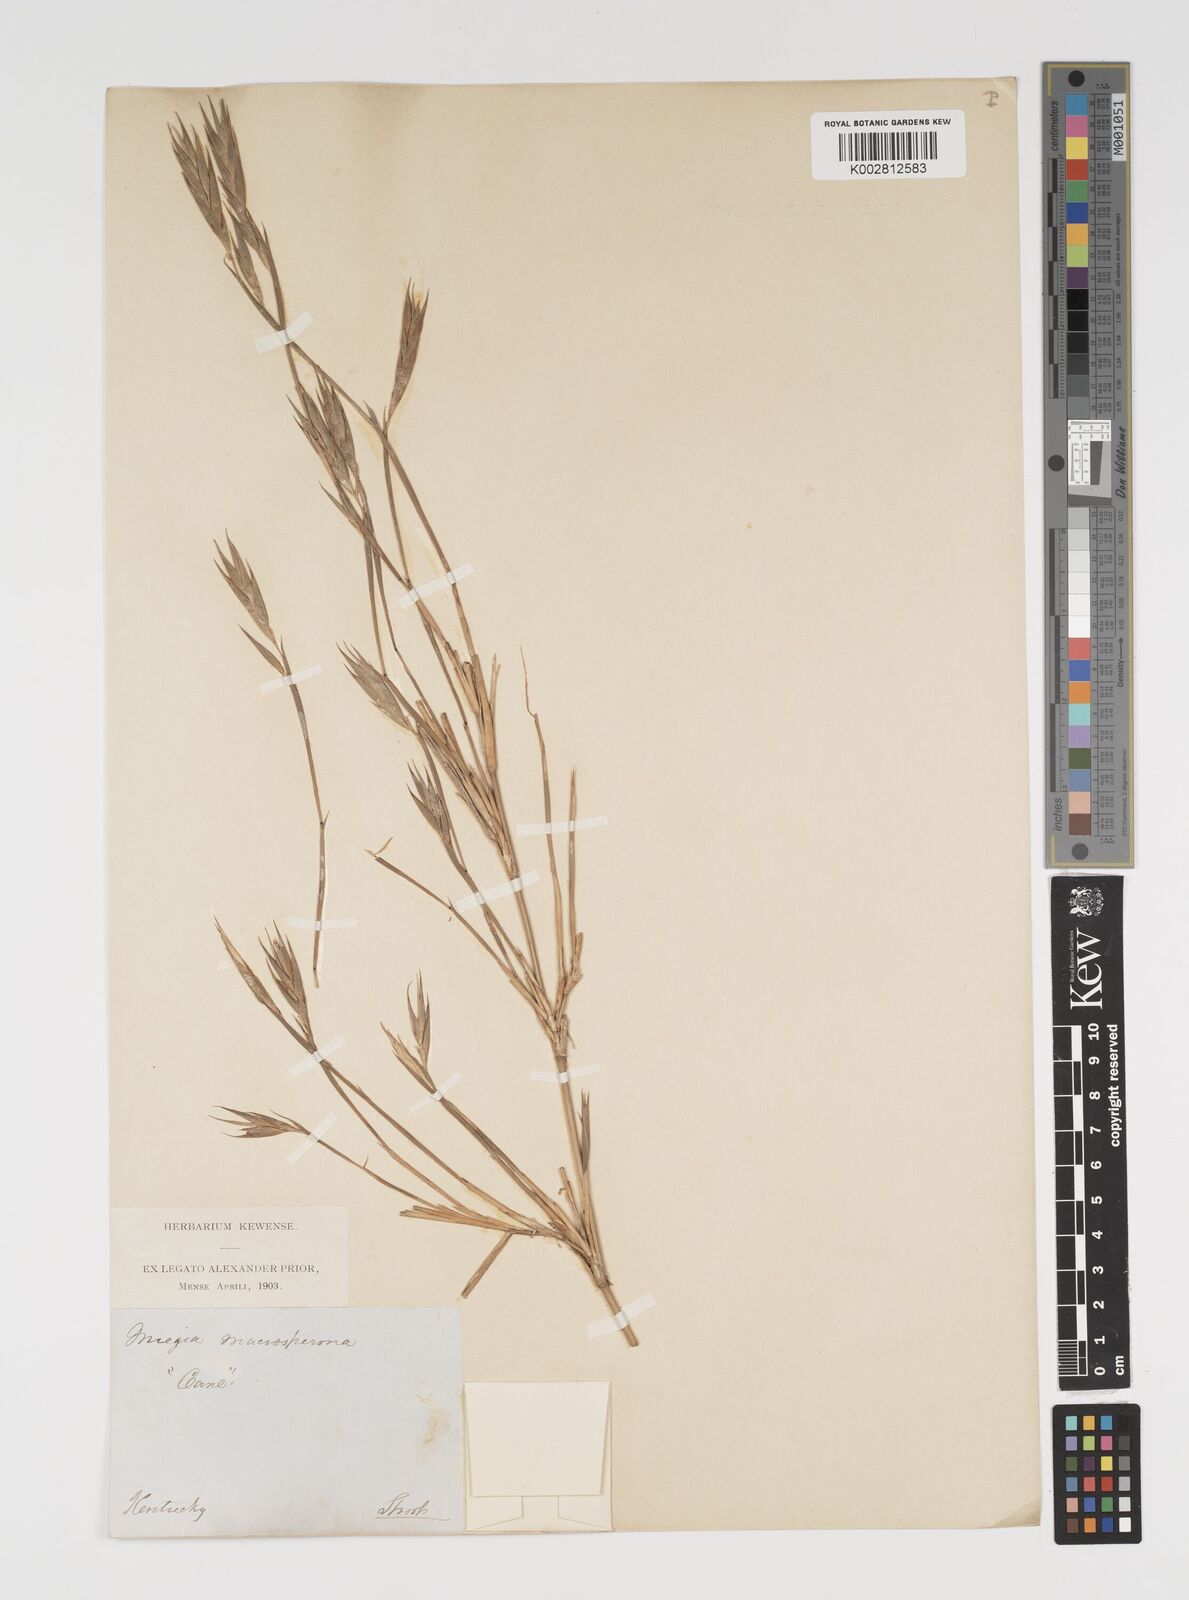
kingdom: Plantae
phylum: Tracheophyta
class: Liliopsida
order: Poales
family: Poaceae
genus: Arundinaria
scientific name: Arundinaria gigantea
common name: Giant cane
